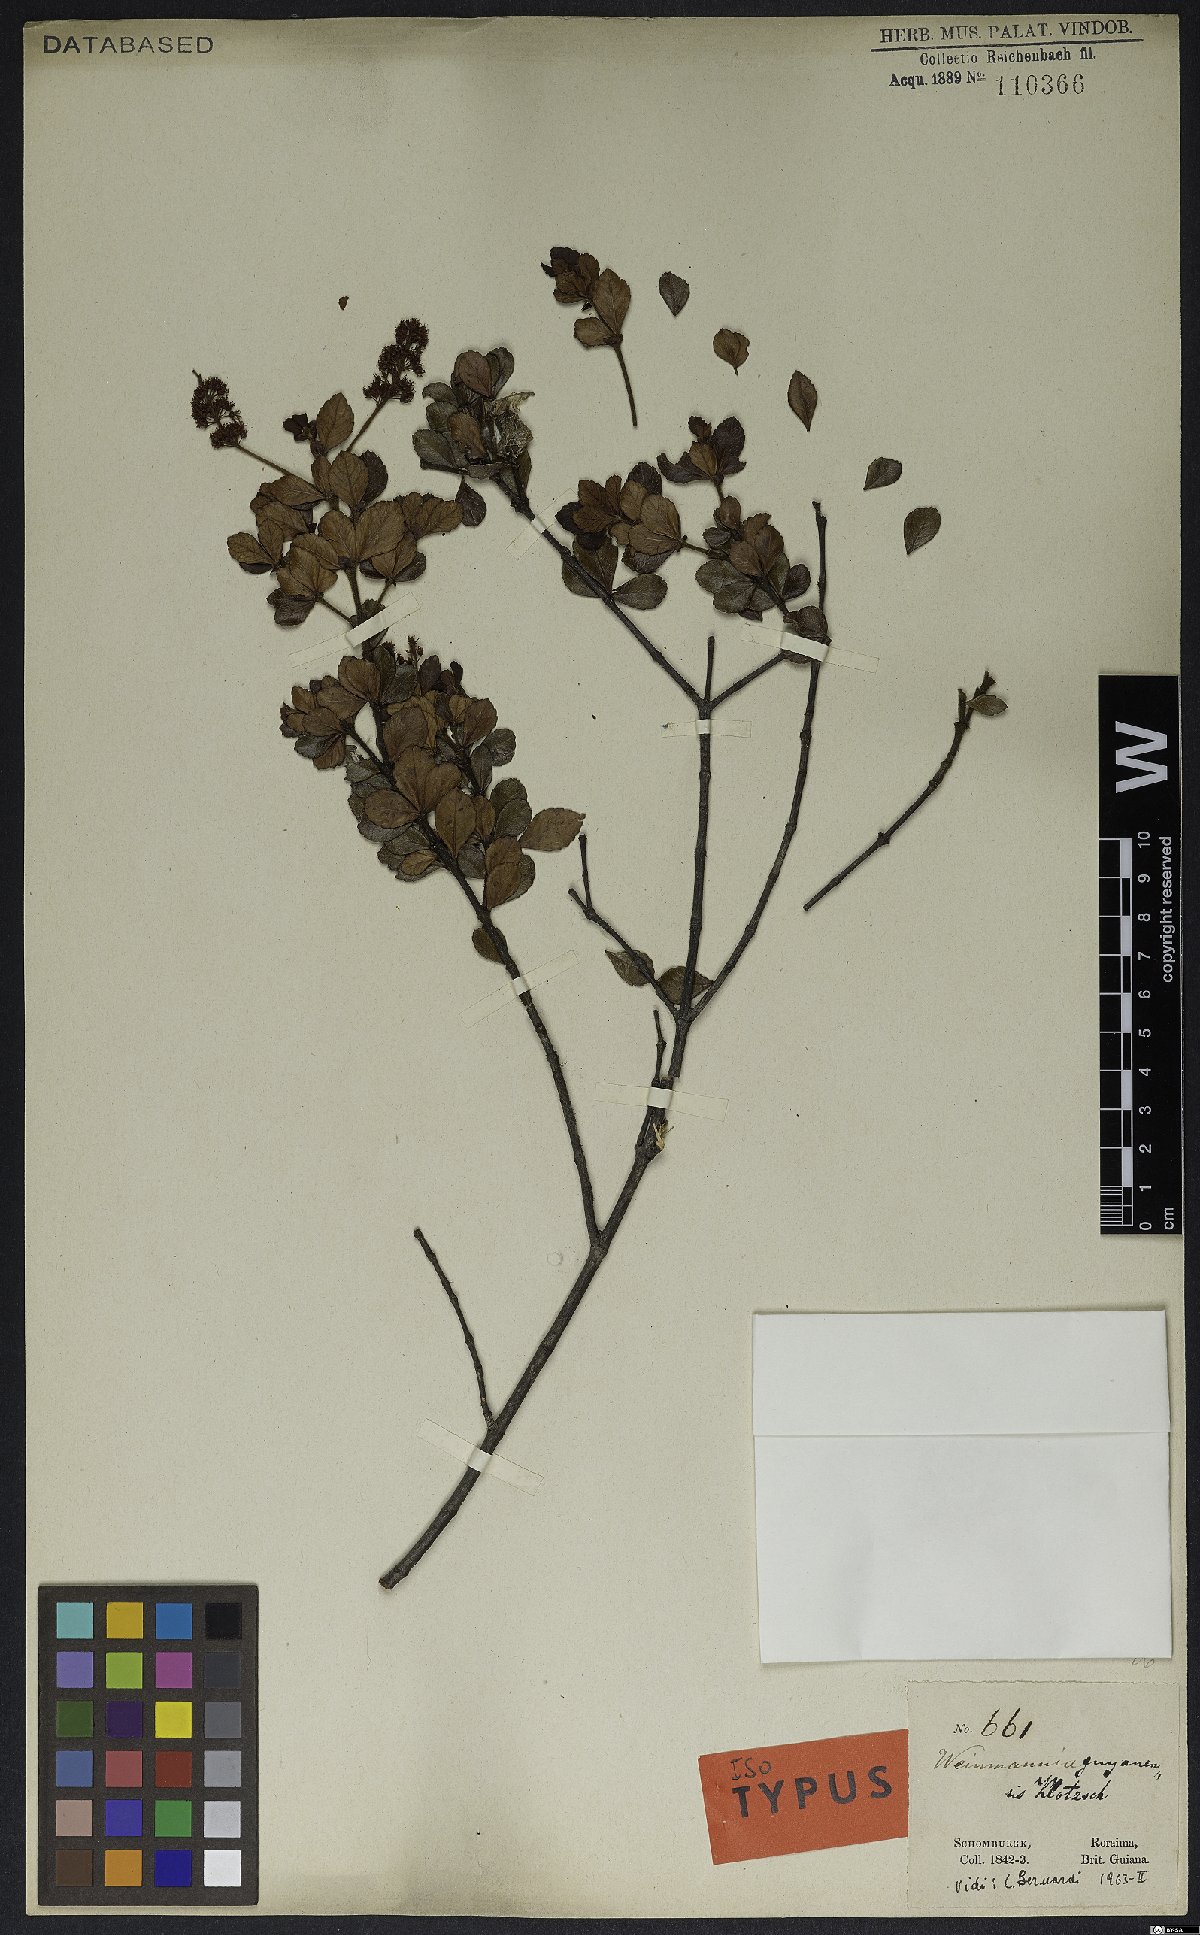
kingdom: Plantae
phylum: Tracheophyta
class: Magnoliopsida
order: Oxalidales
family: Cunoniaceae
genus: Weinmannia
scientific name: Weinmannia guyanensis
